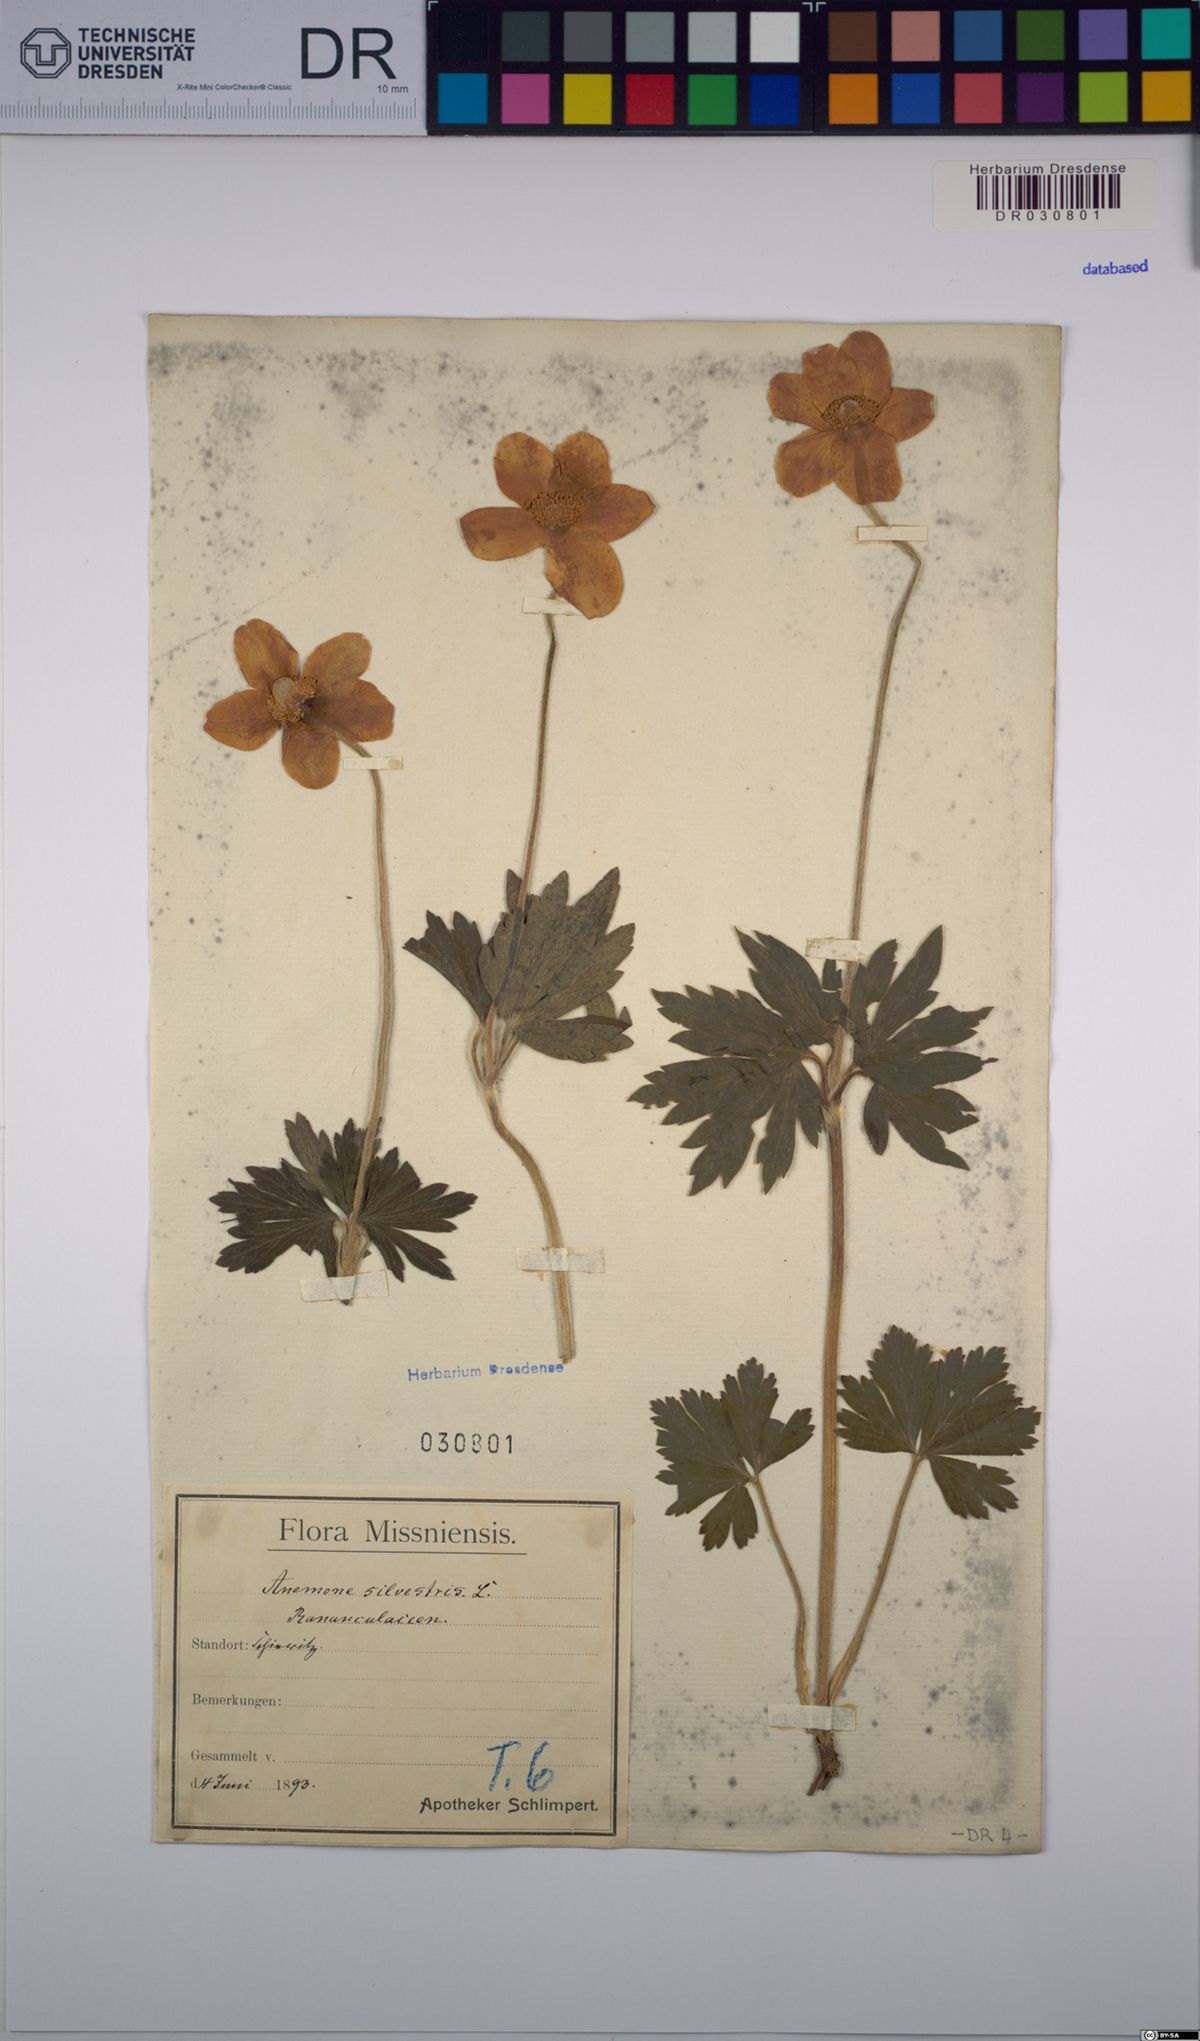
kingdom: Plantae
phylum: Tracheophyta
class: Magnoliopsida
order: Ranunculales
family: Ranunculaceae
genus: Anemone
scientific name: Anemone sylvestris
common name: Snowdrop anemone
